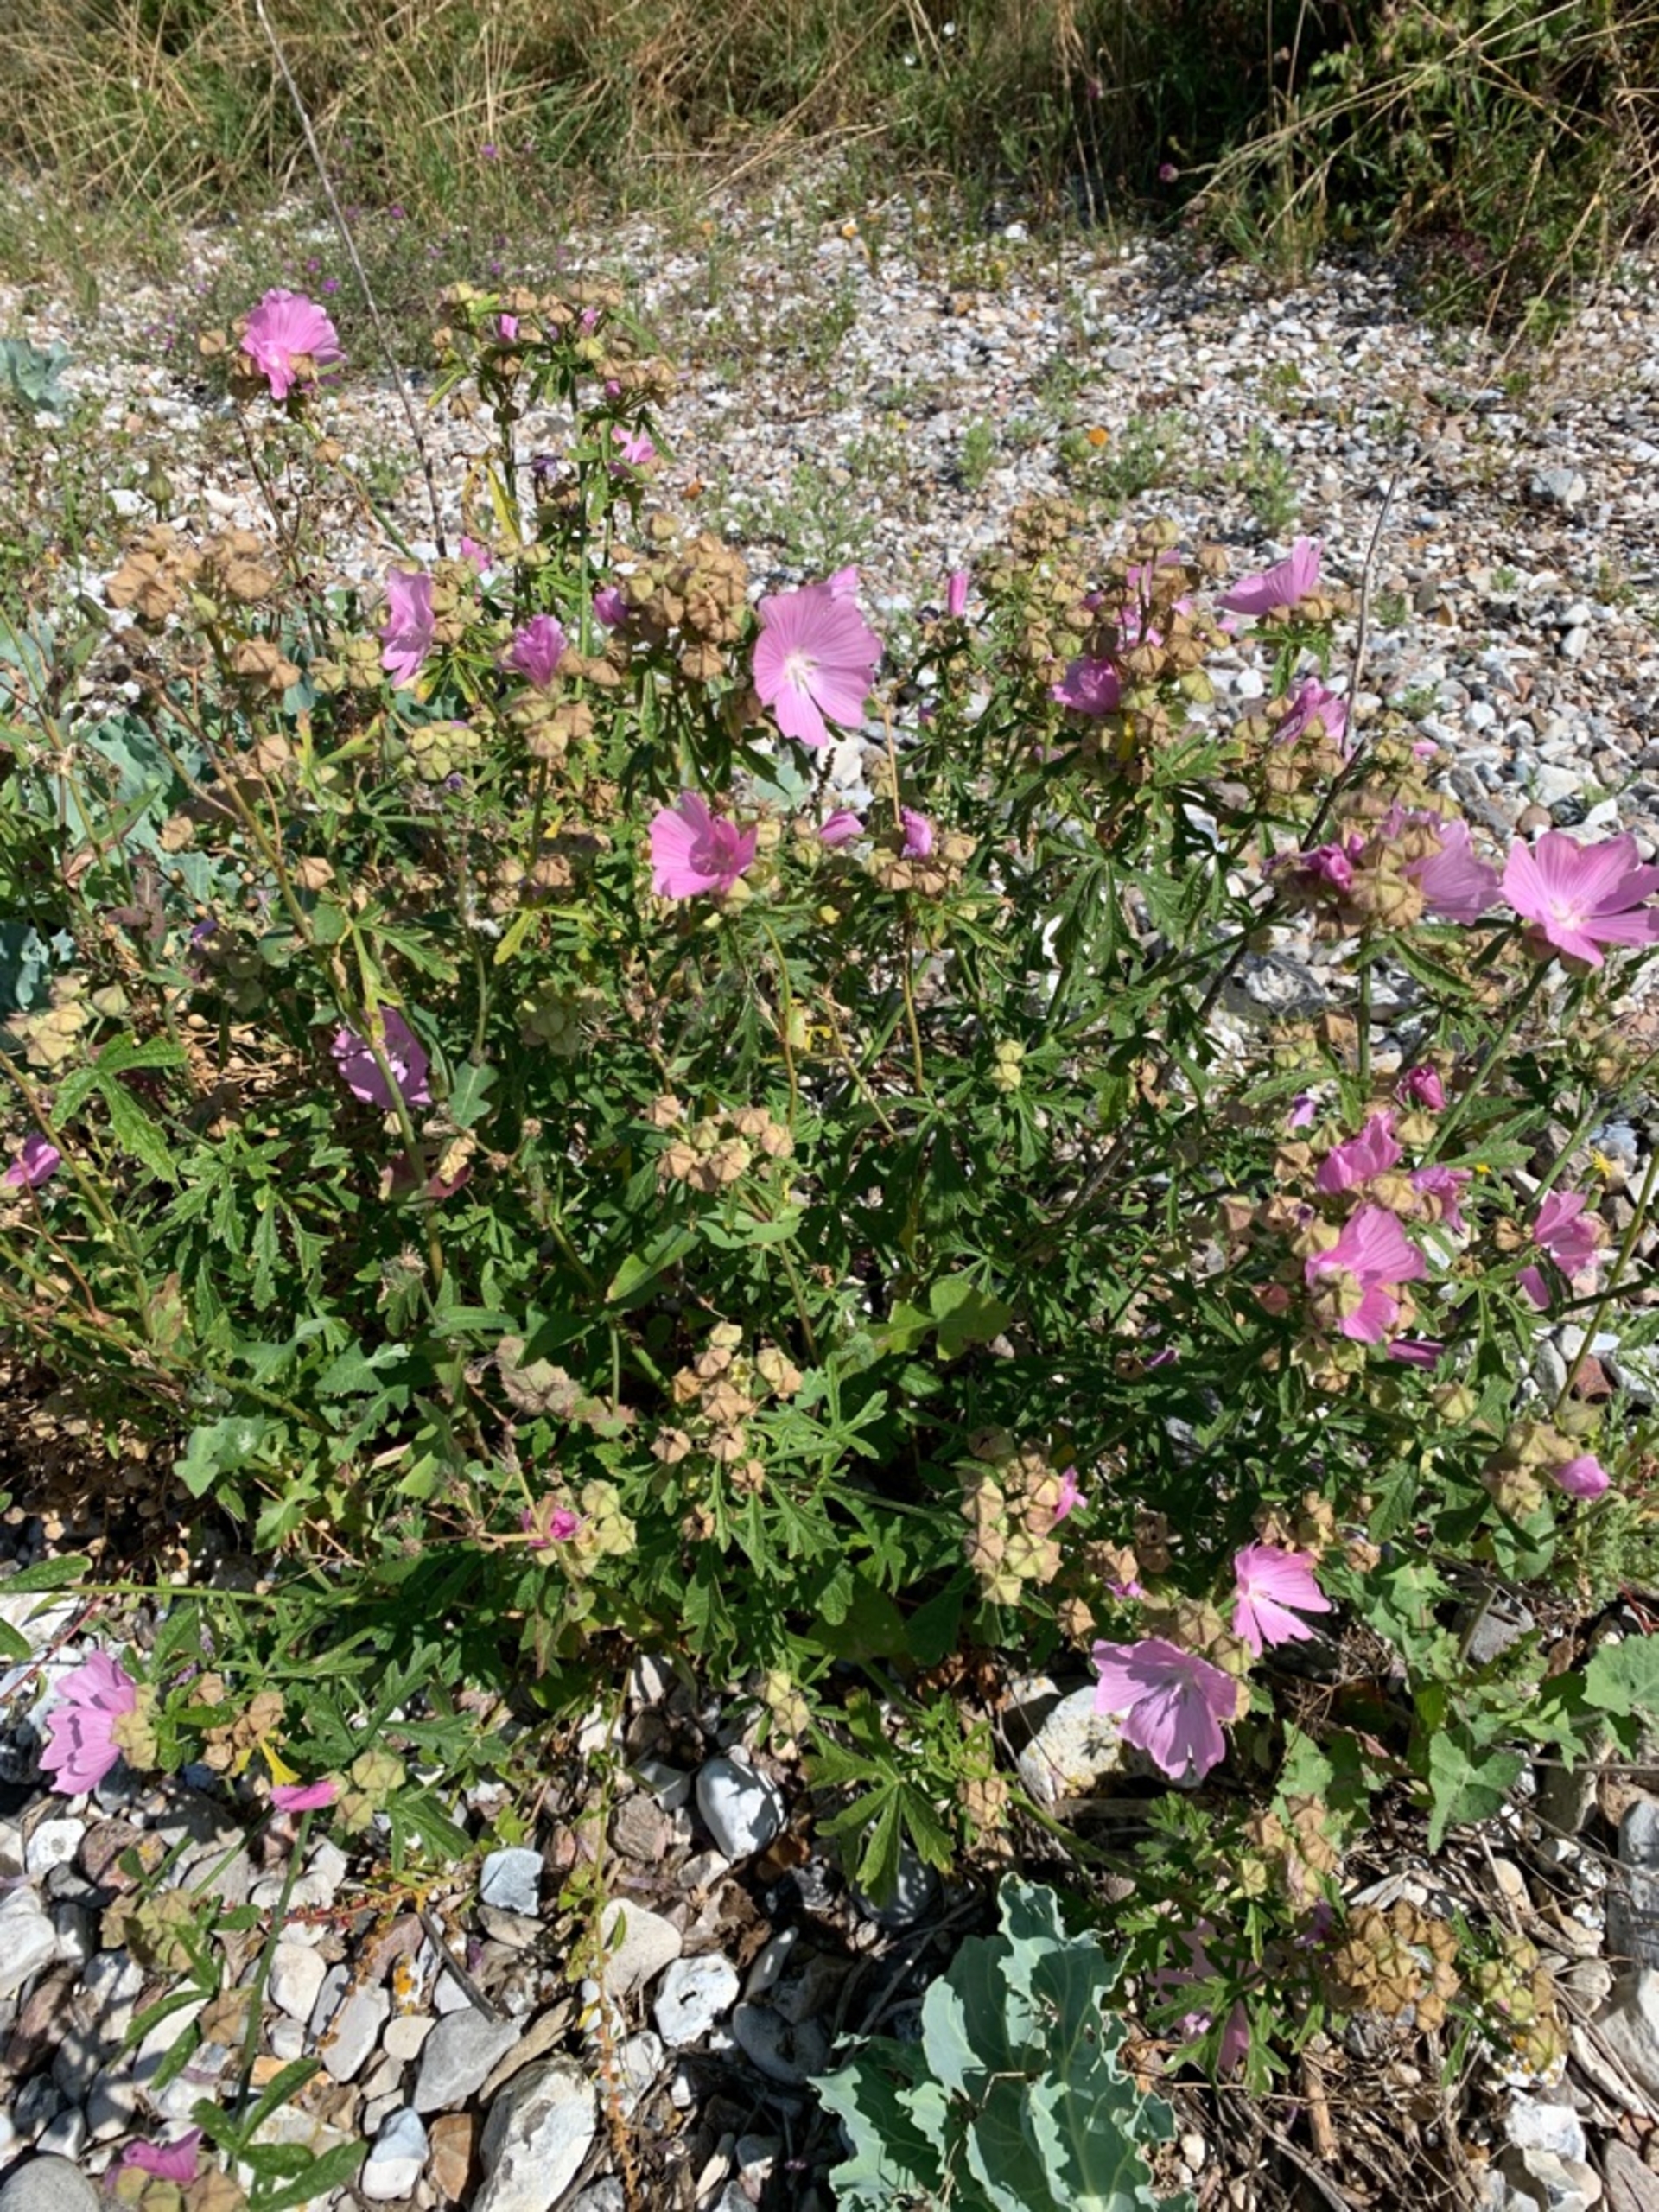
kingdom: Plantae
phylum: Tracheophyta
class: Magnoliopsida
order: Malvales
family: Malvaceae
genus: Malva
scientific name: Malva alcea
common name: Rosen-katost
